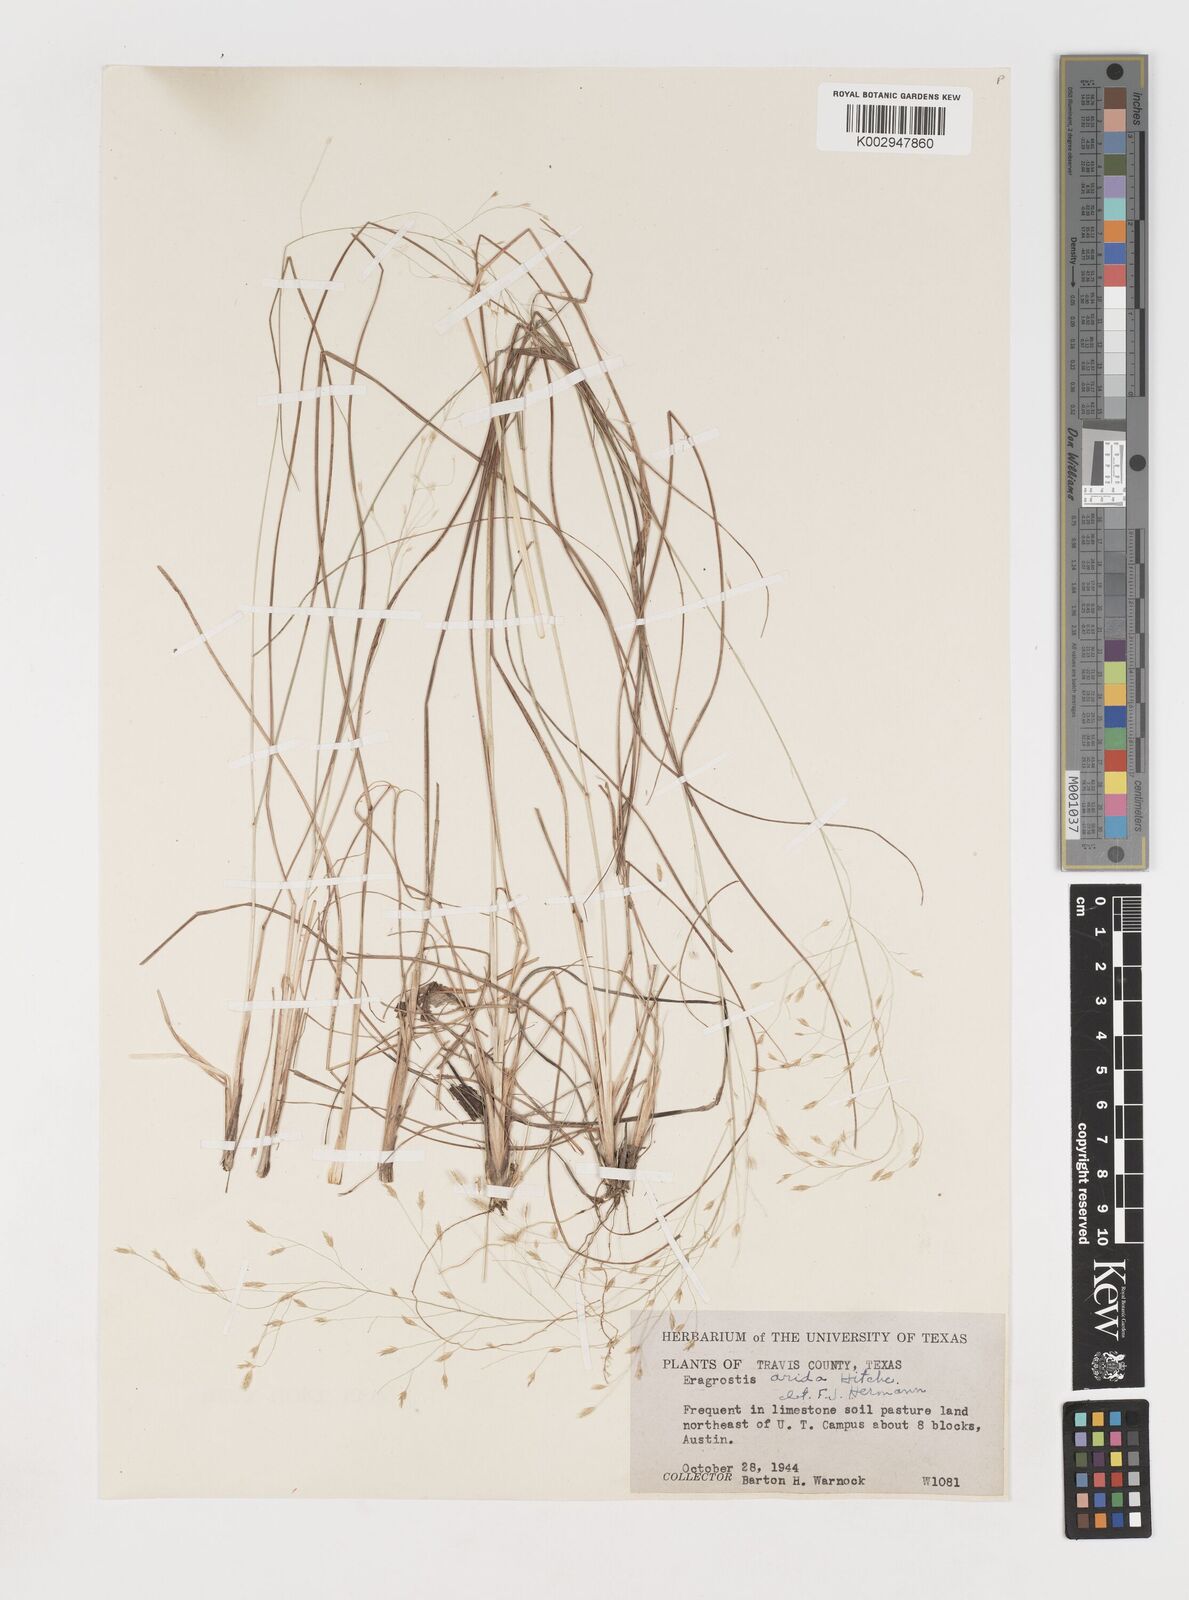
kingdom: Plantae
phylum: Tracheophyta
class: Liliopsida
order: Poales
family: Poaceae
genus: Eragrostis
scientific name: Eragrostis pectinacea
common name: Tufted lovegrass
